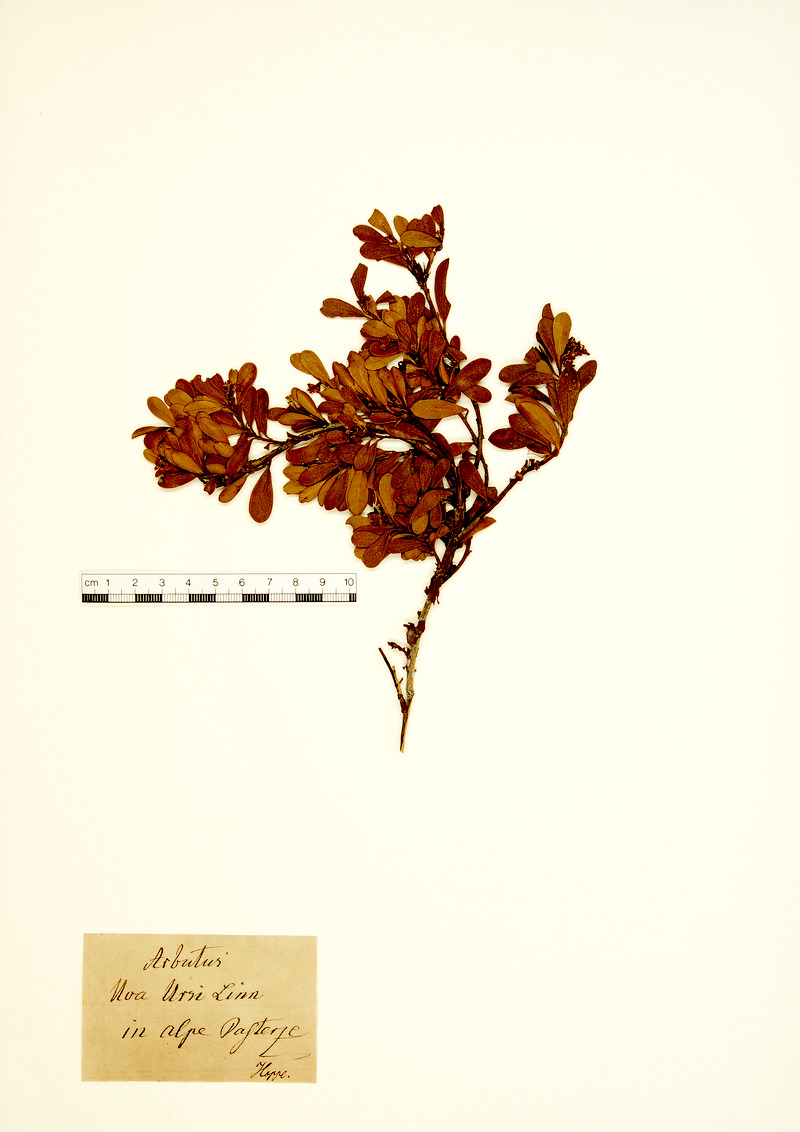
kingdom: Plantae
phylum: Tracheophyta
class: Magnoliopsida
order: Ericales
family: Ericaceae
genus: Arctostaphylos
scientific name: Arctostaphylos uva-ursi
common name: Bearberry
